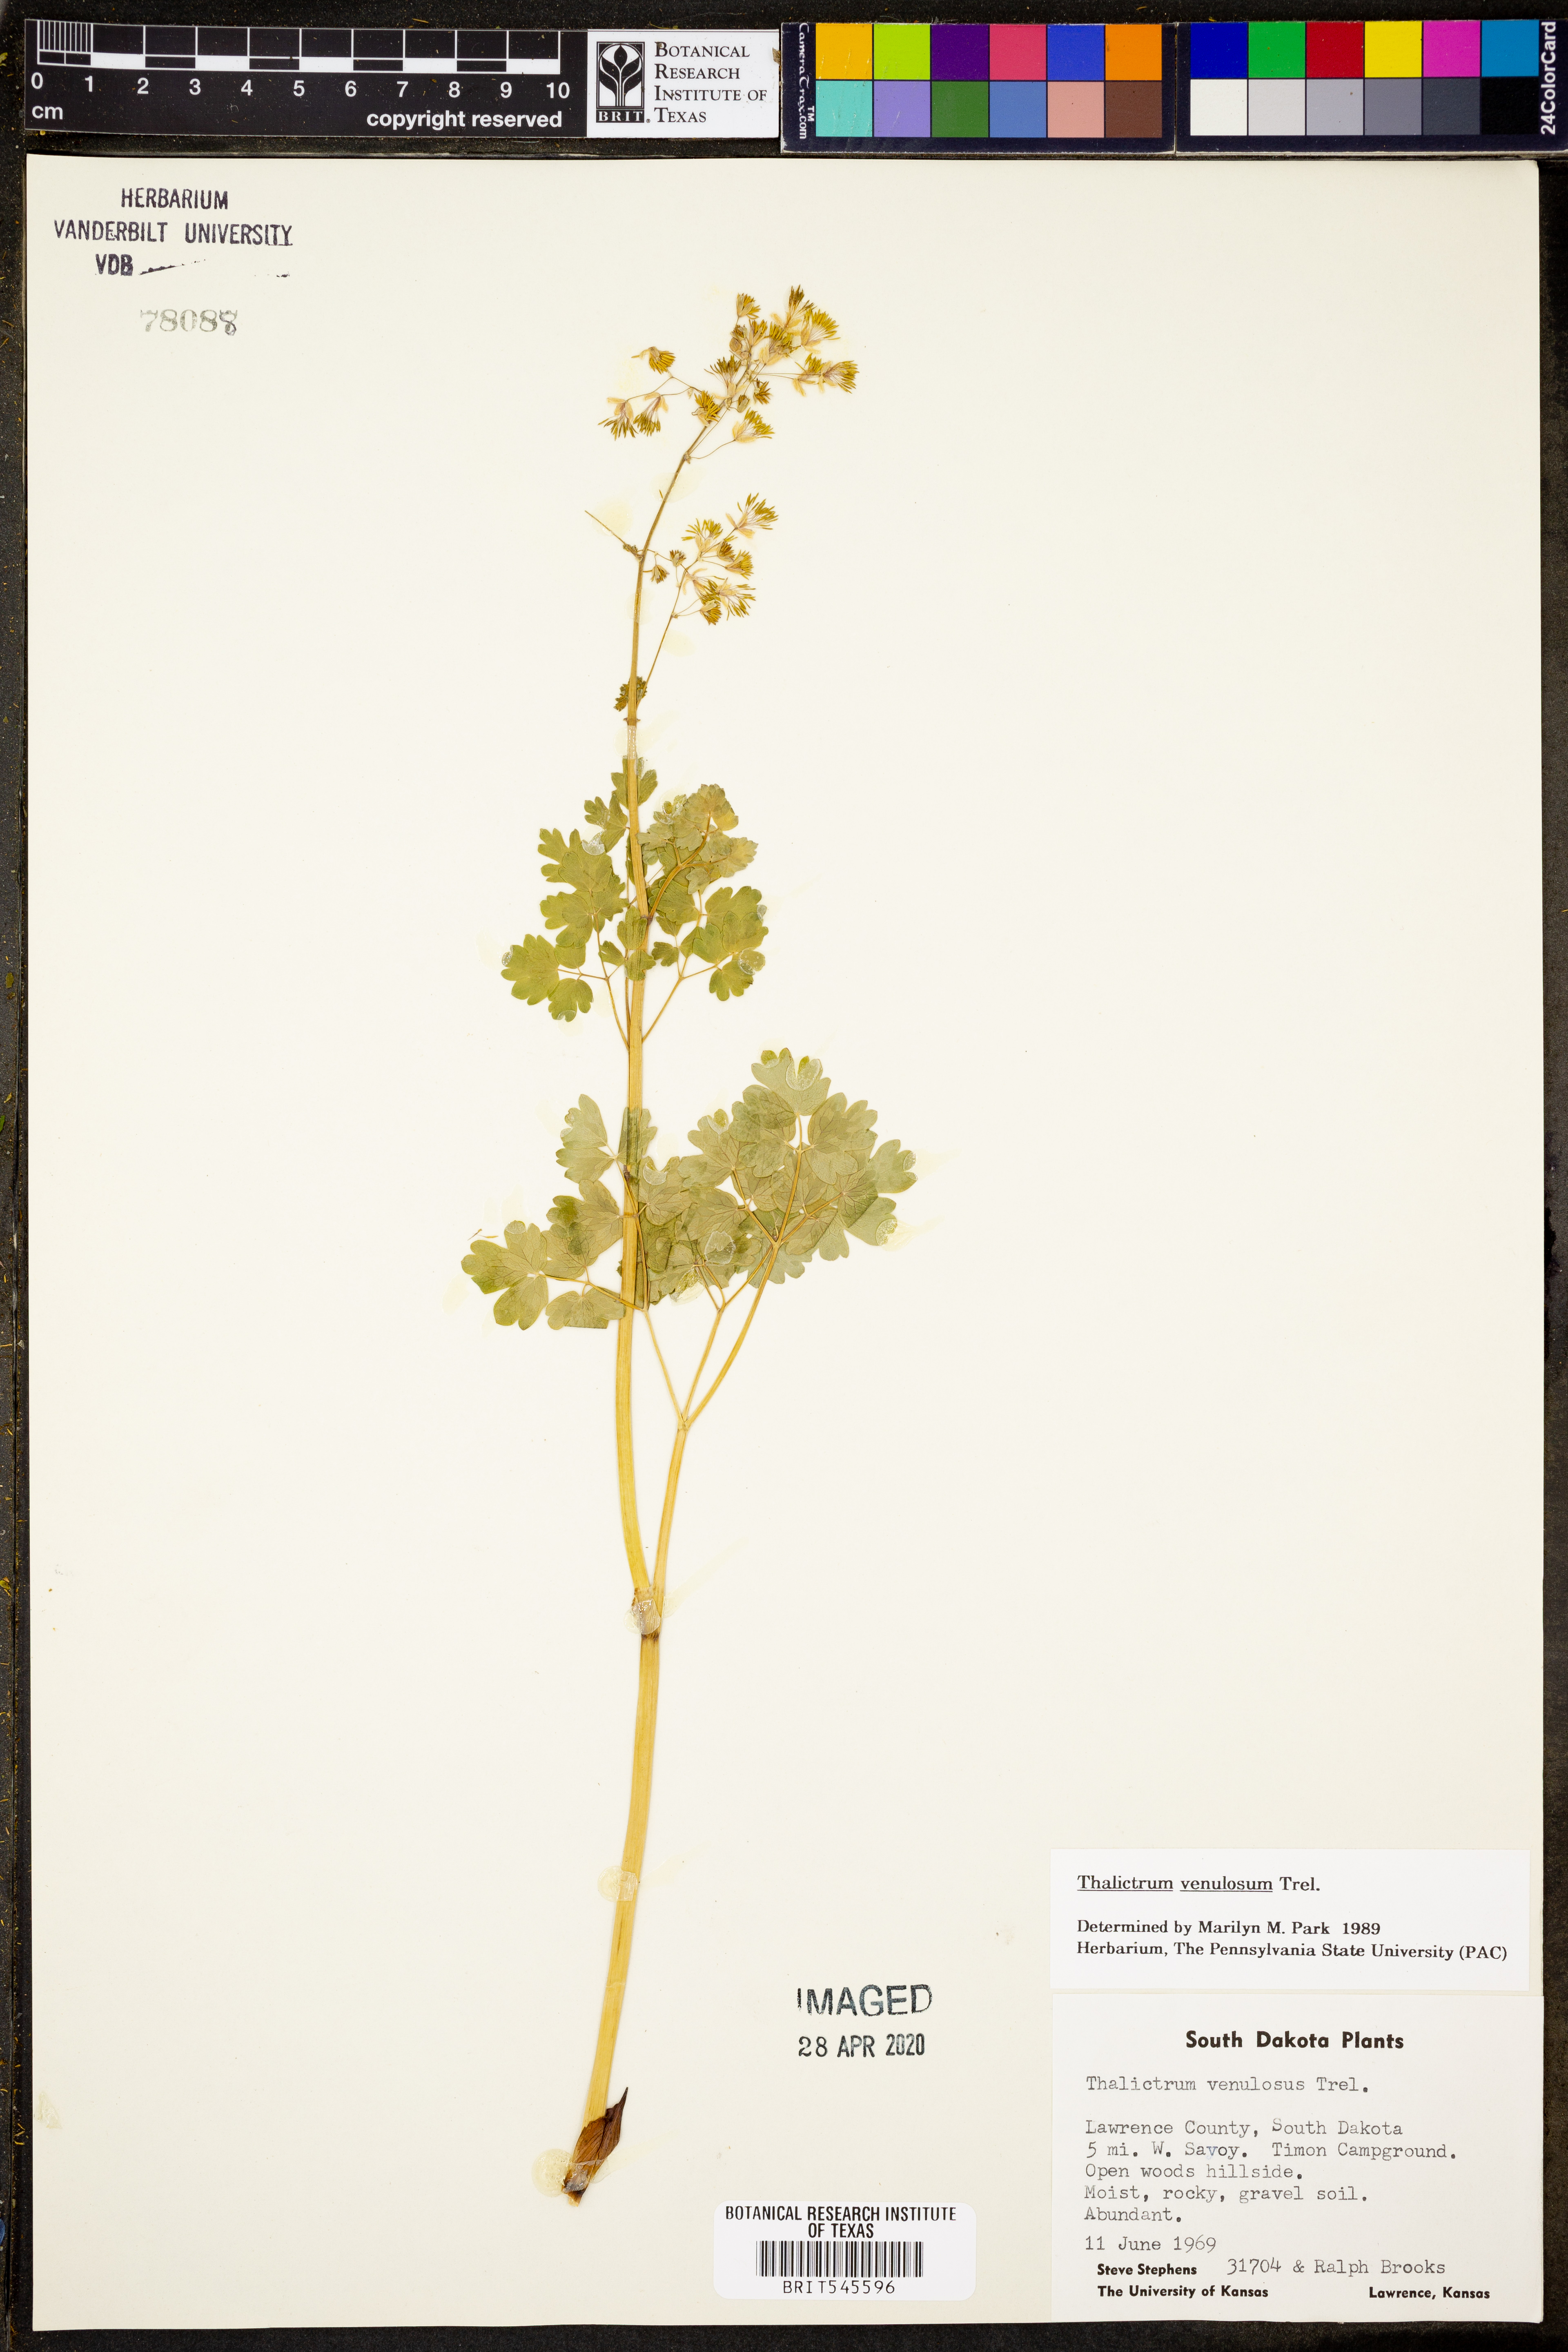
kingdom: Plantae
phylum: Tracheophyta
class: Magnoliopsida
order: Ranunculales
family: Ranunculaceae
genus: Thalictrum
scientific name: Thalictrum venulosum
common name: Early meadow-rue
